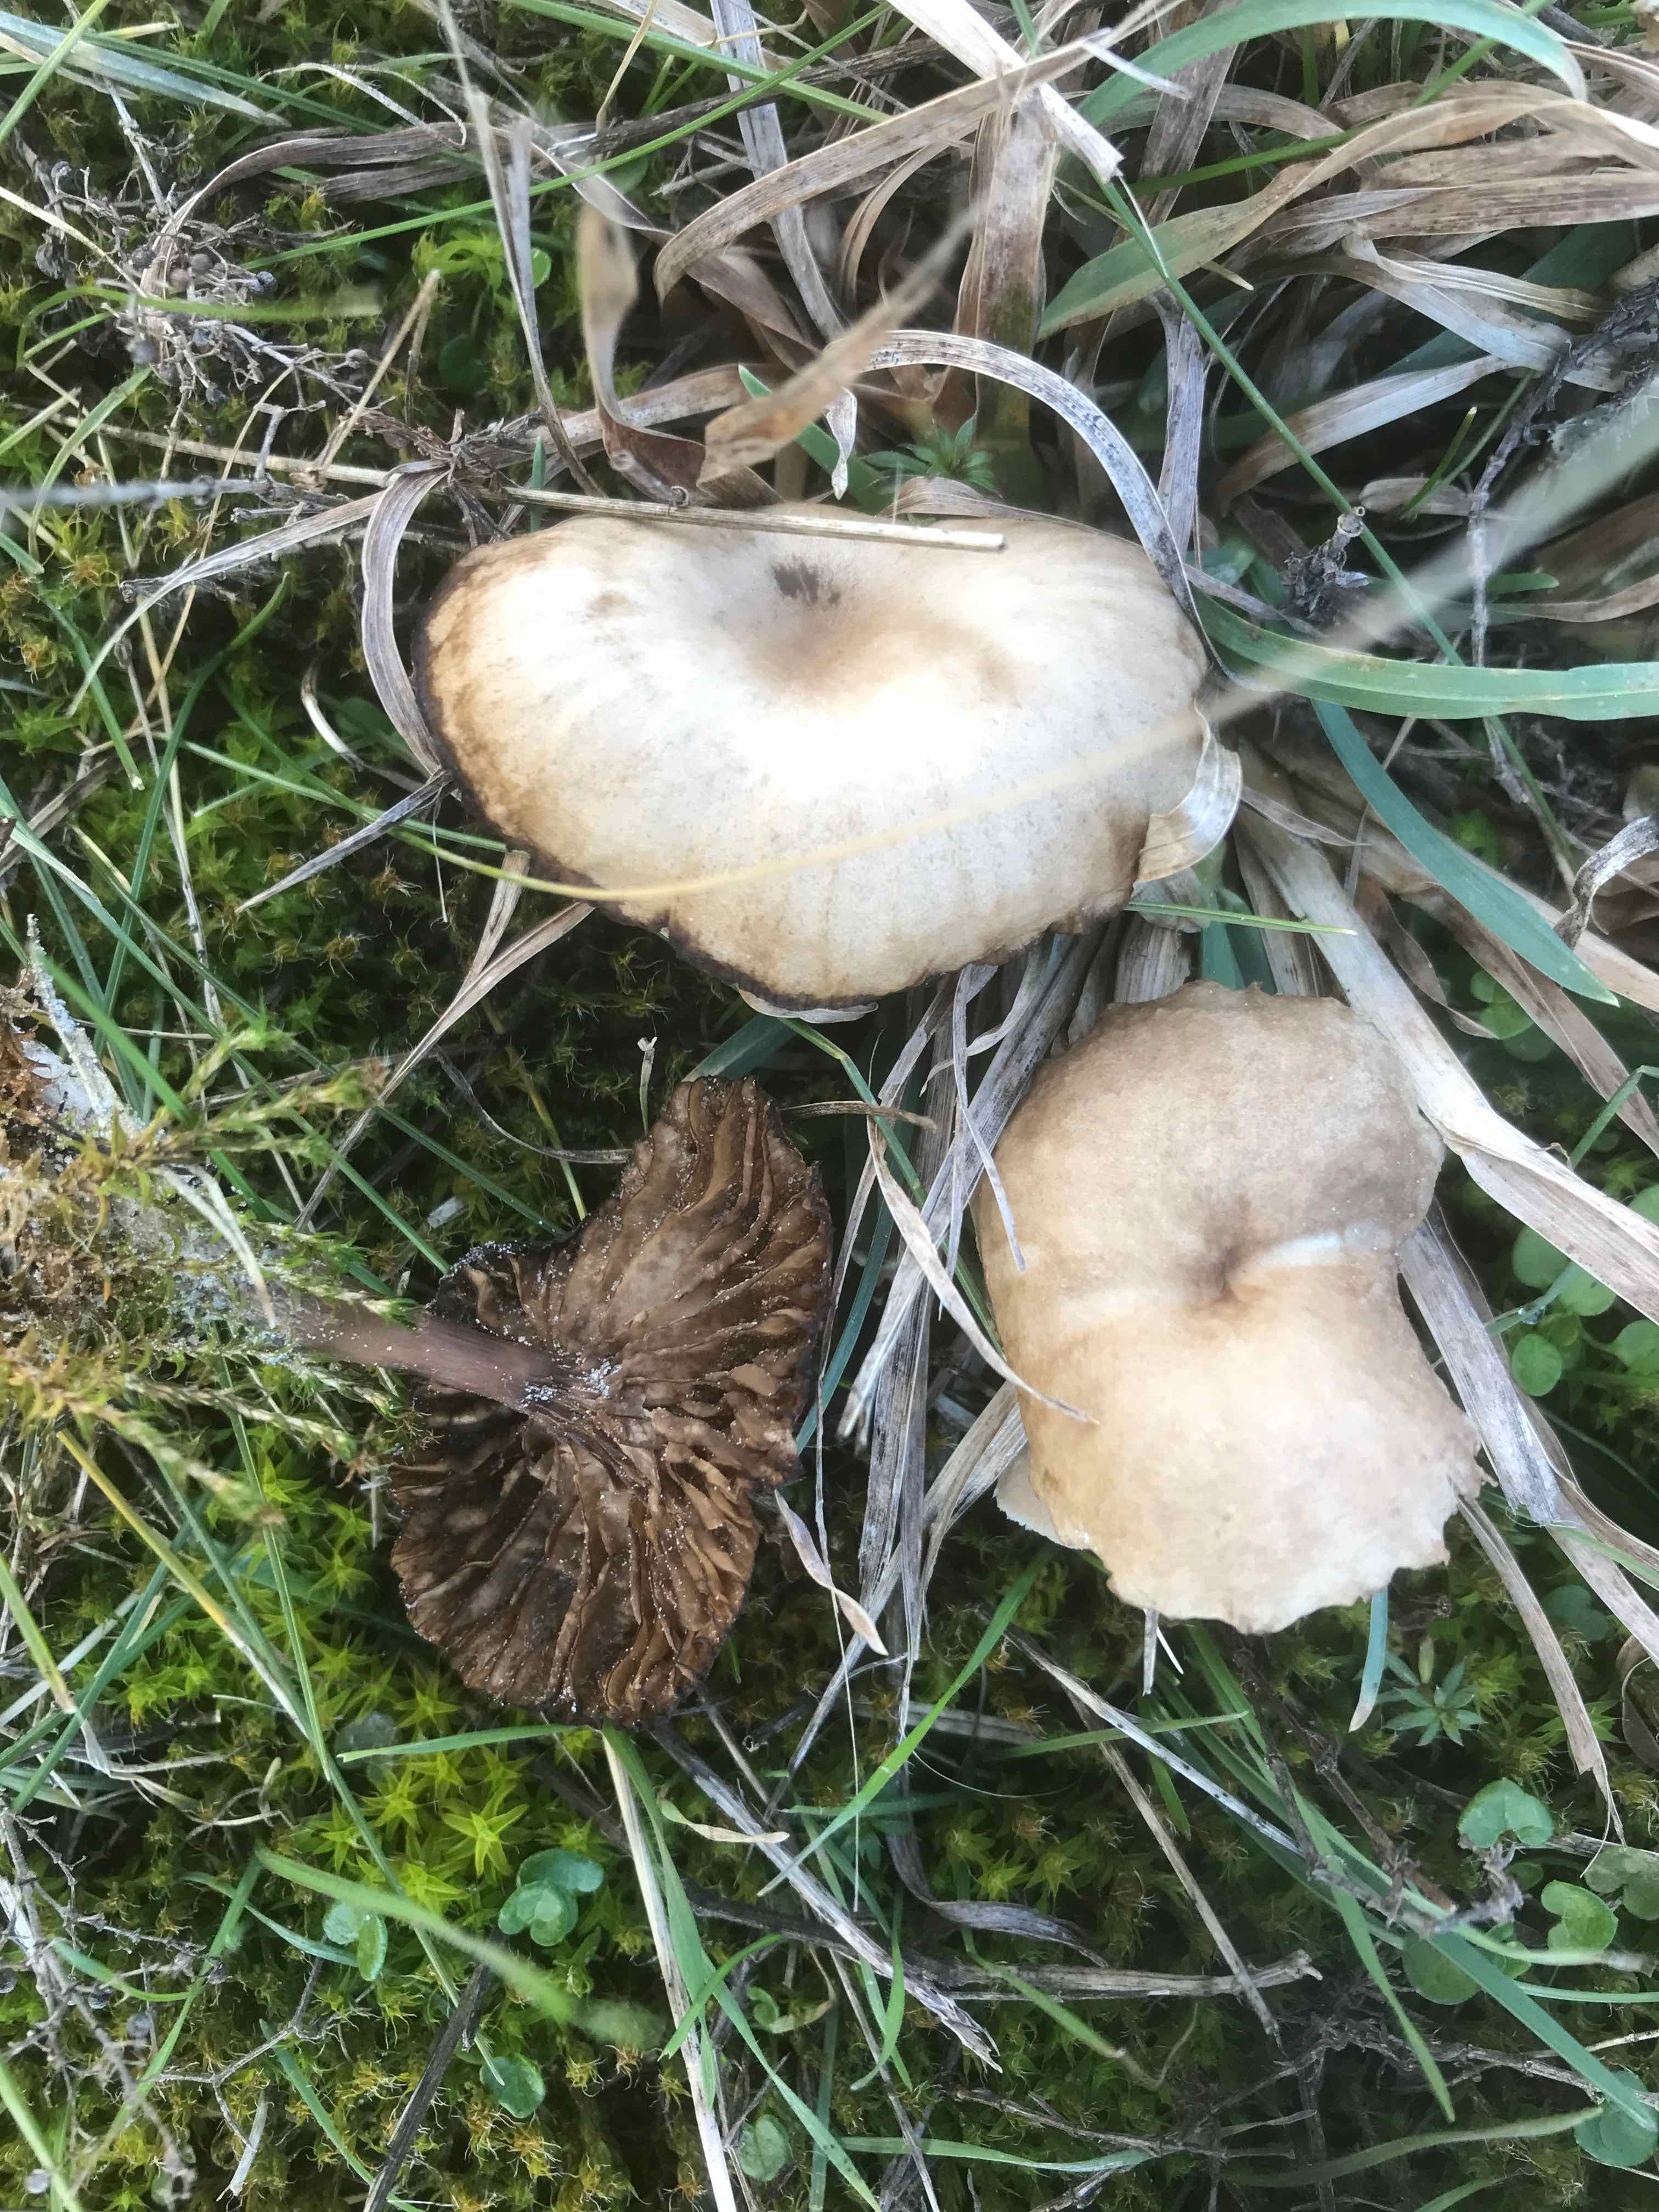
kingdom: Fungi
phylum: Basidiomycota
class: Agaricomycetes
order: Agaricales
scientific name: Agaricales
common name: champignonordenen
